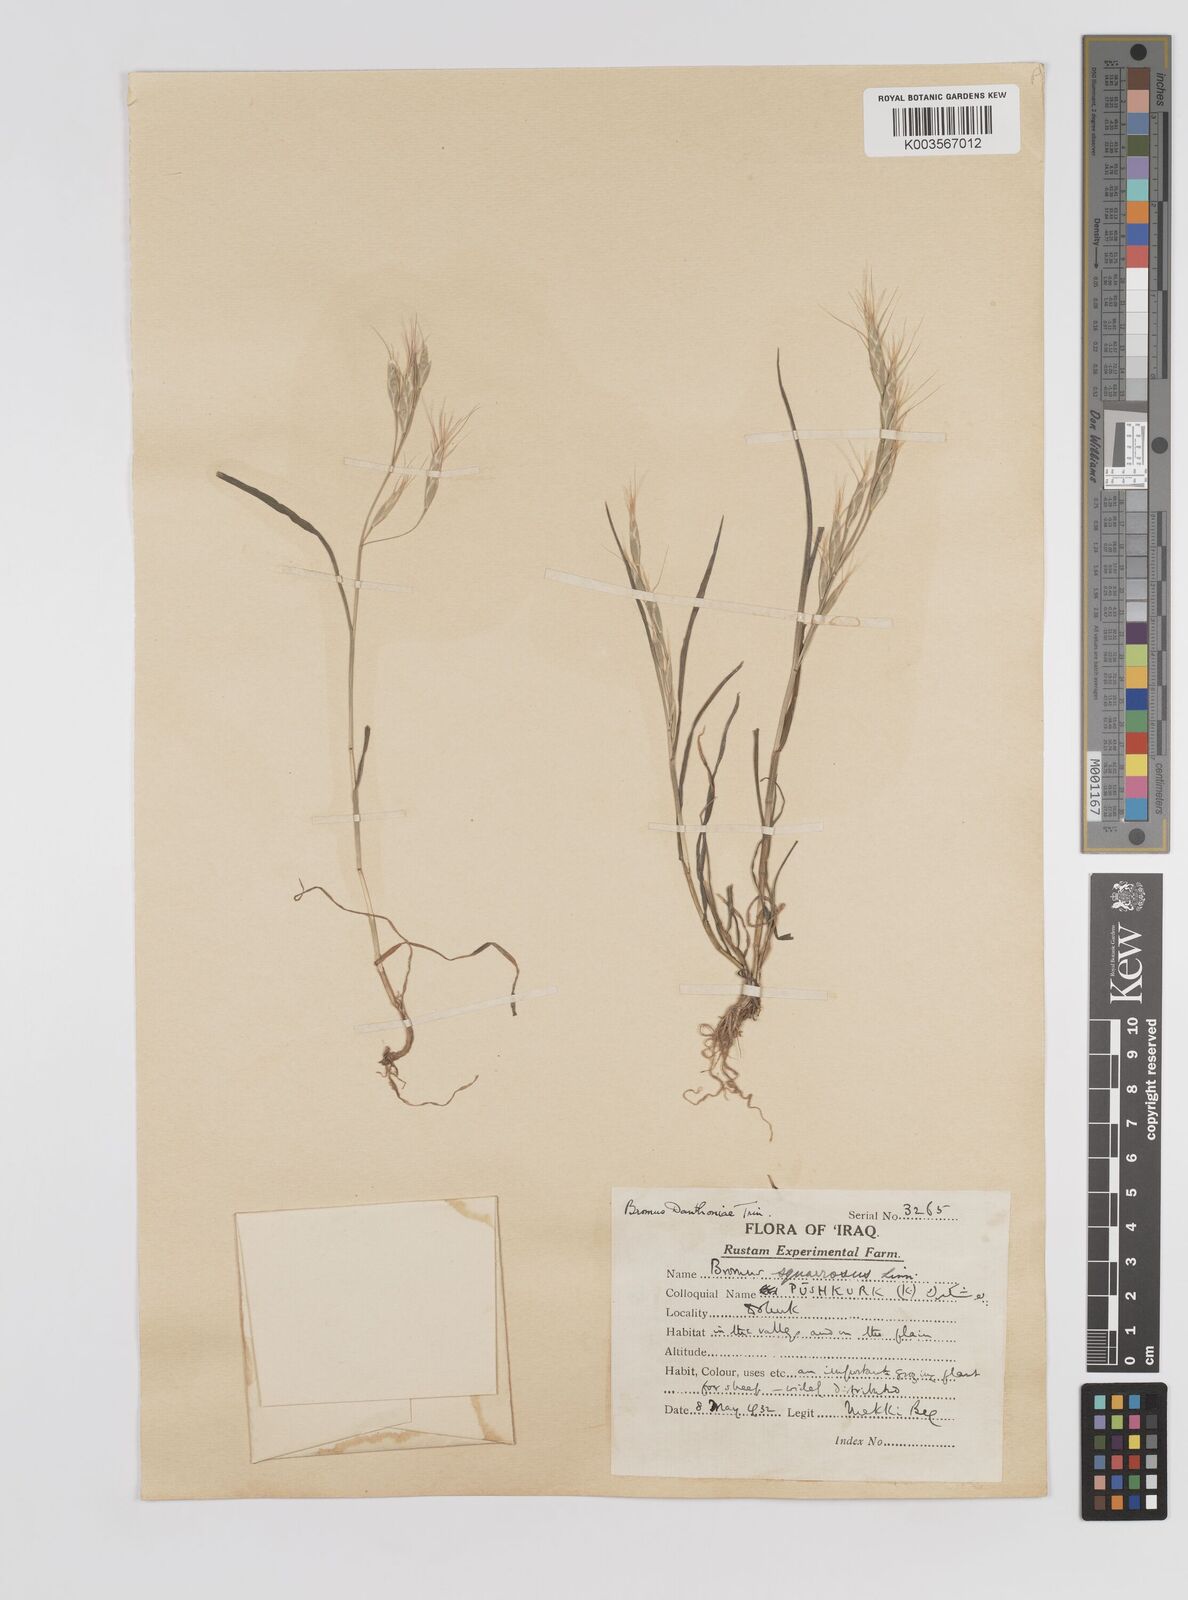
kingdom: Plantae
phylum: Tracheophyta
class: Liliopsida
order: Poales
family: Poaceae
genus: Bromus
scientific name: Bromus danthoniae
